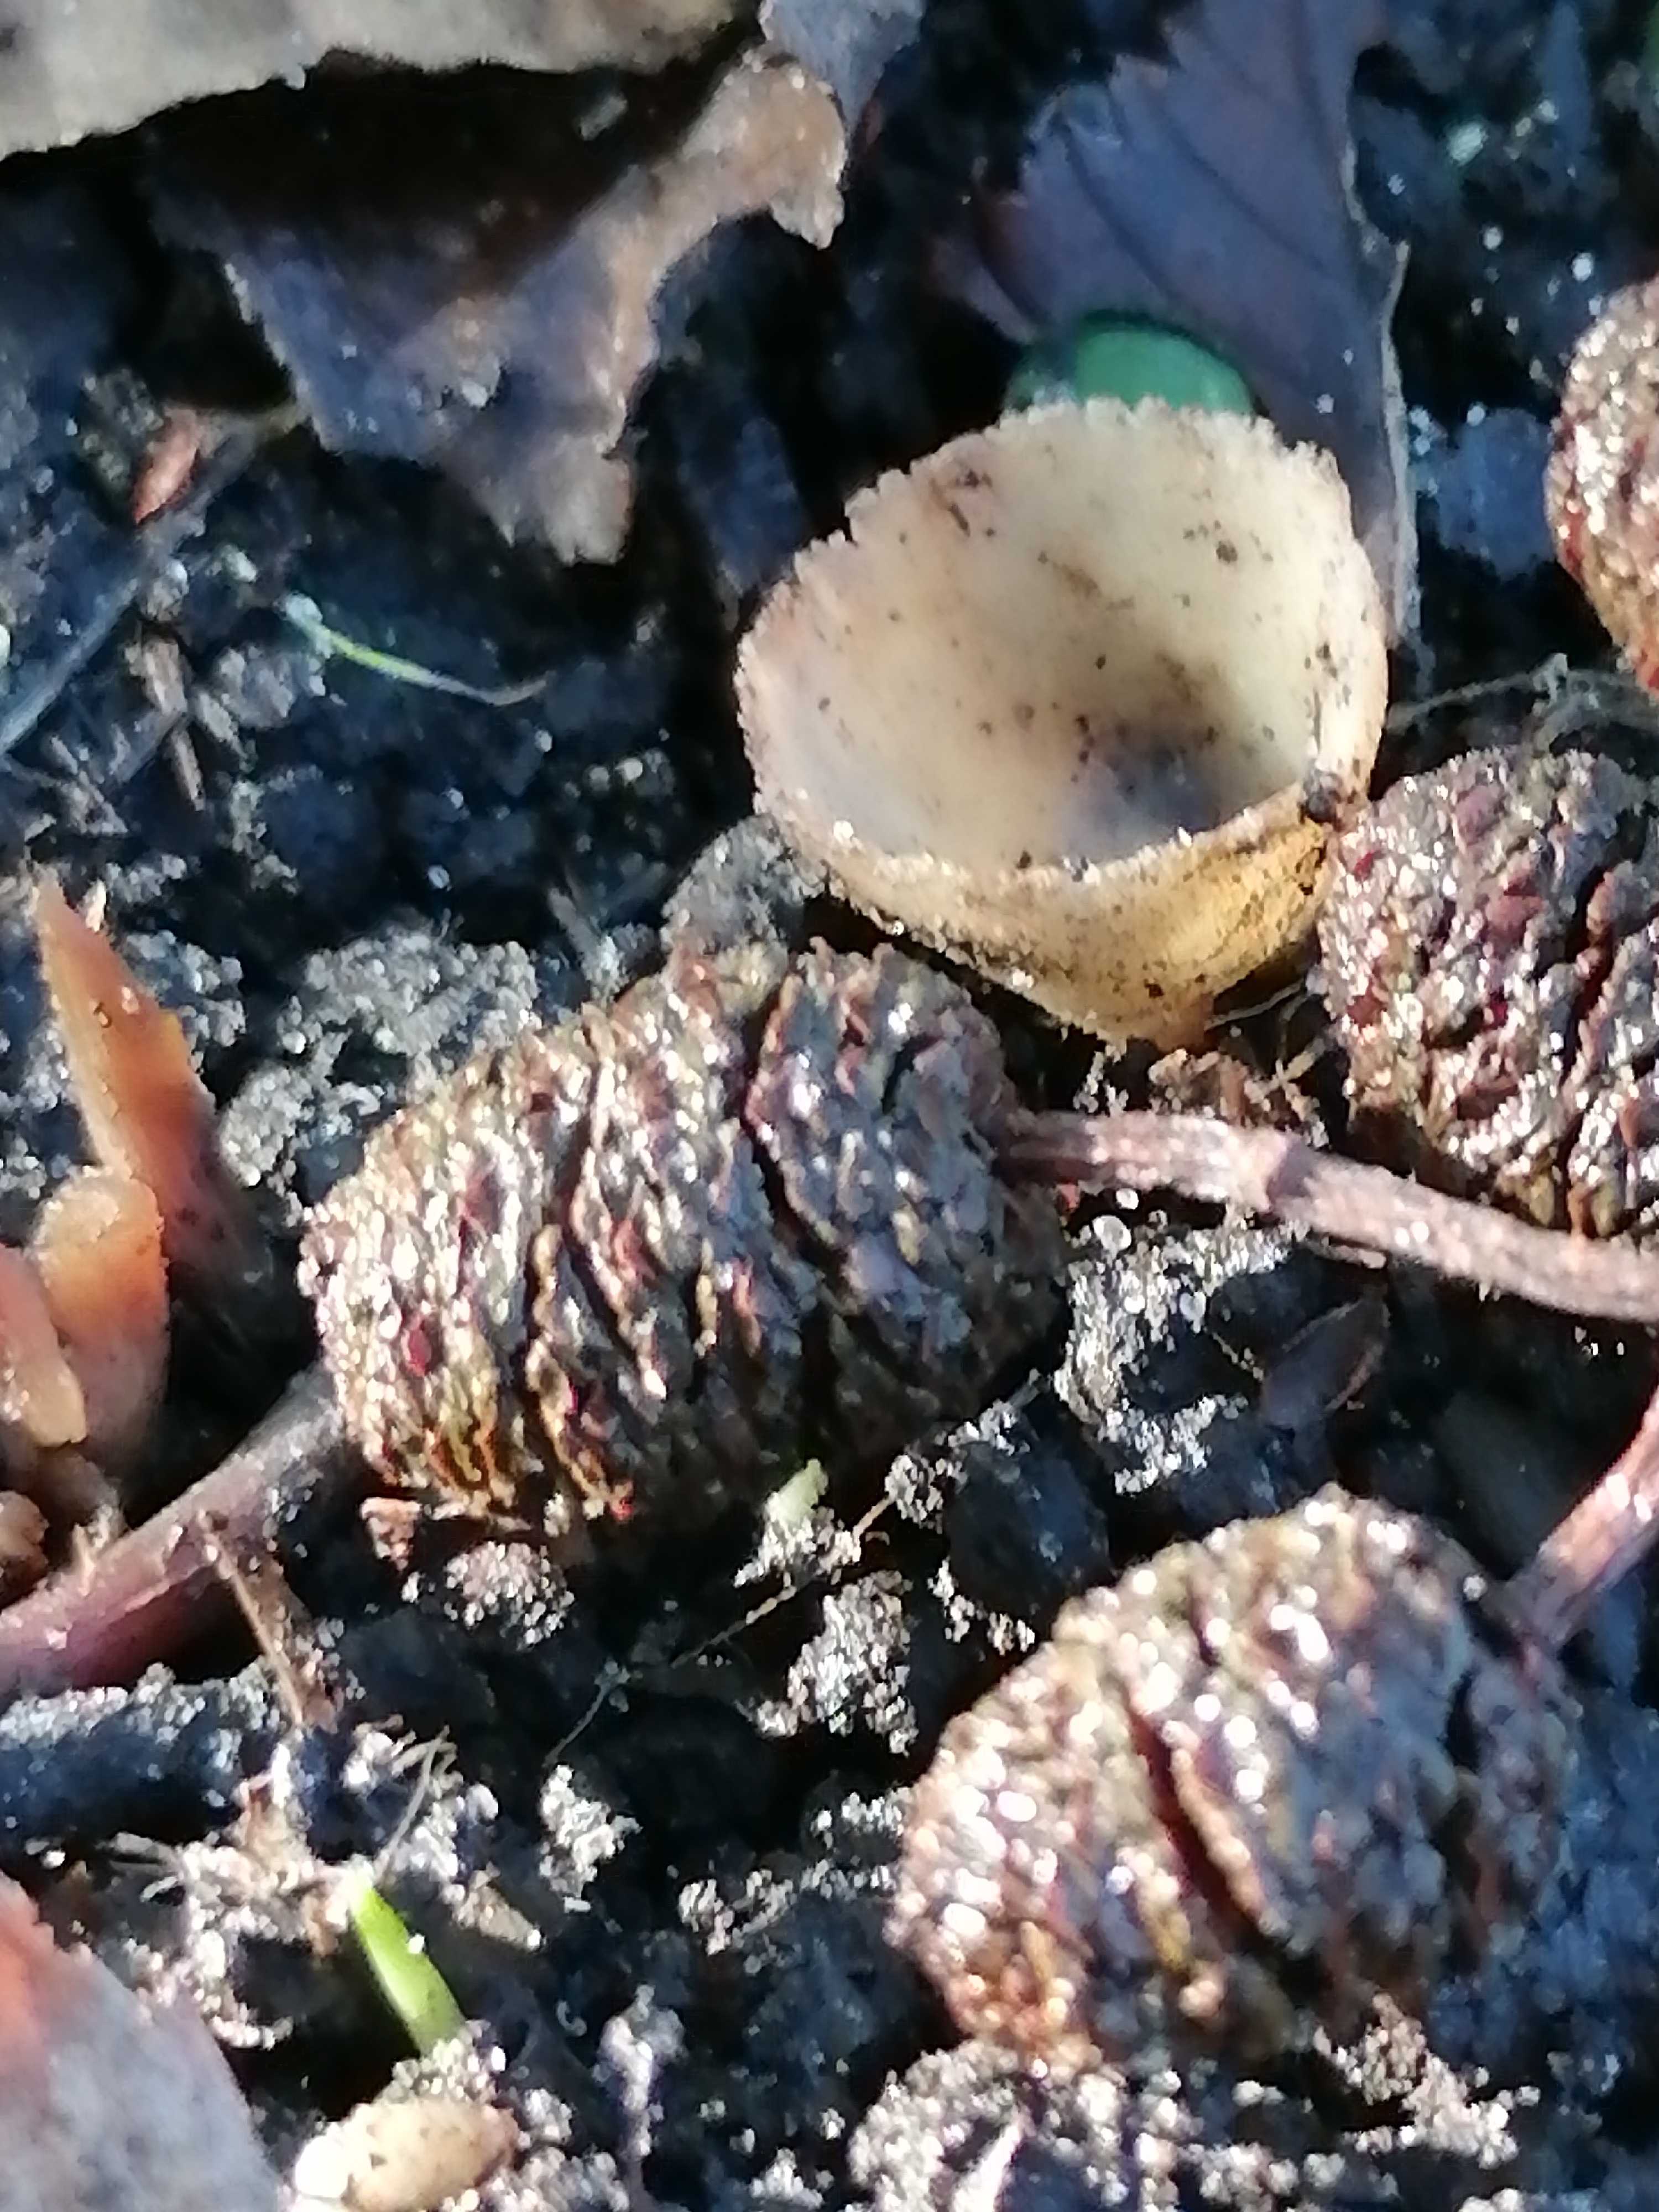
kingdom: Fungi
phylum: Ascomycota
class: Pezizomycetes
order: Pezizales
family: Pyronemataceae
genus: Tarzetta
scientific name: Tarzetta cupularis
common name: gulbrun pokalbæger
